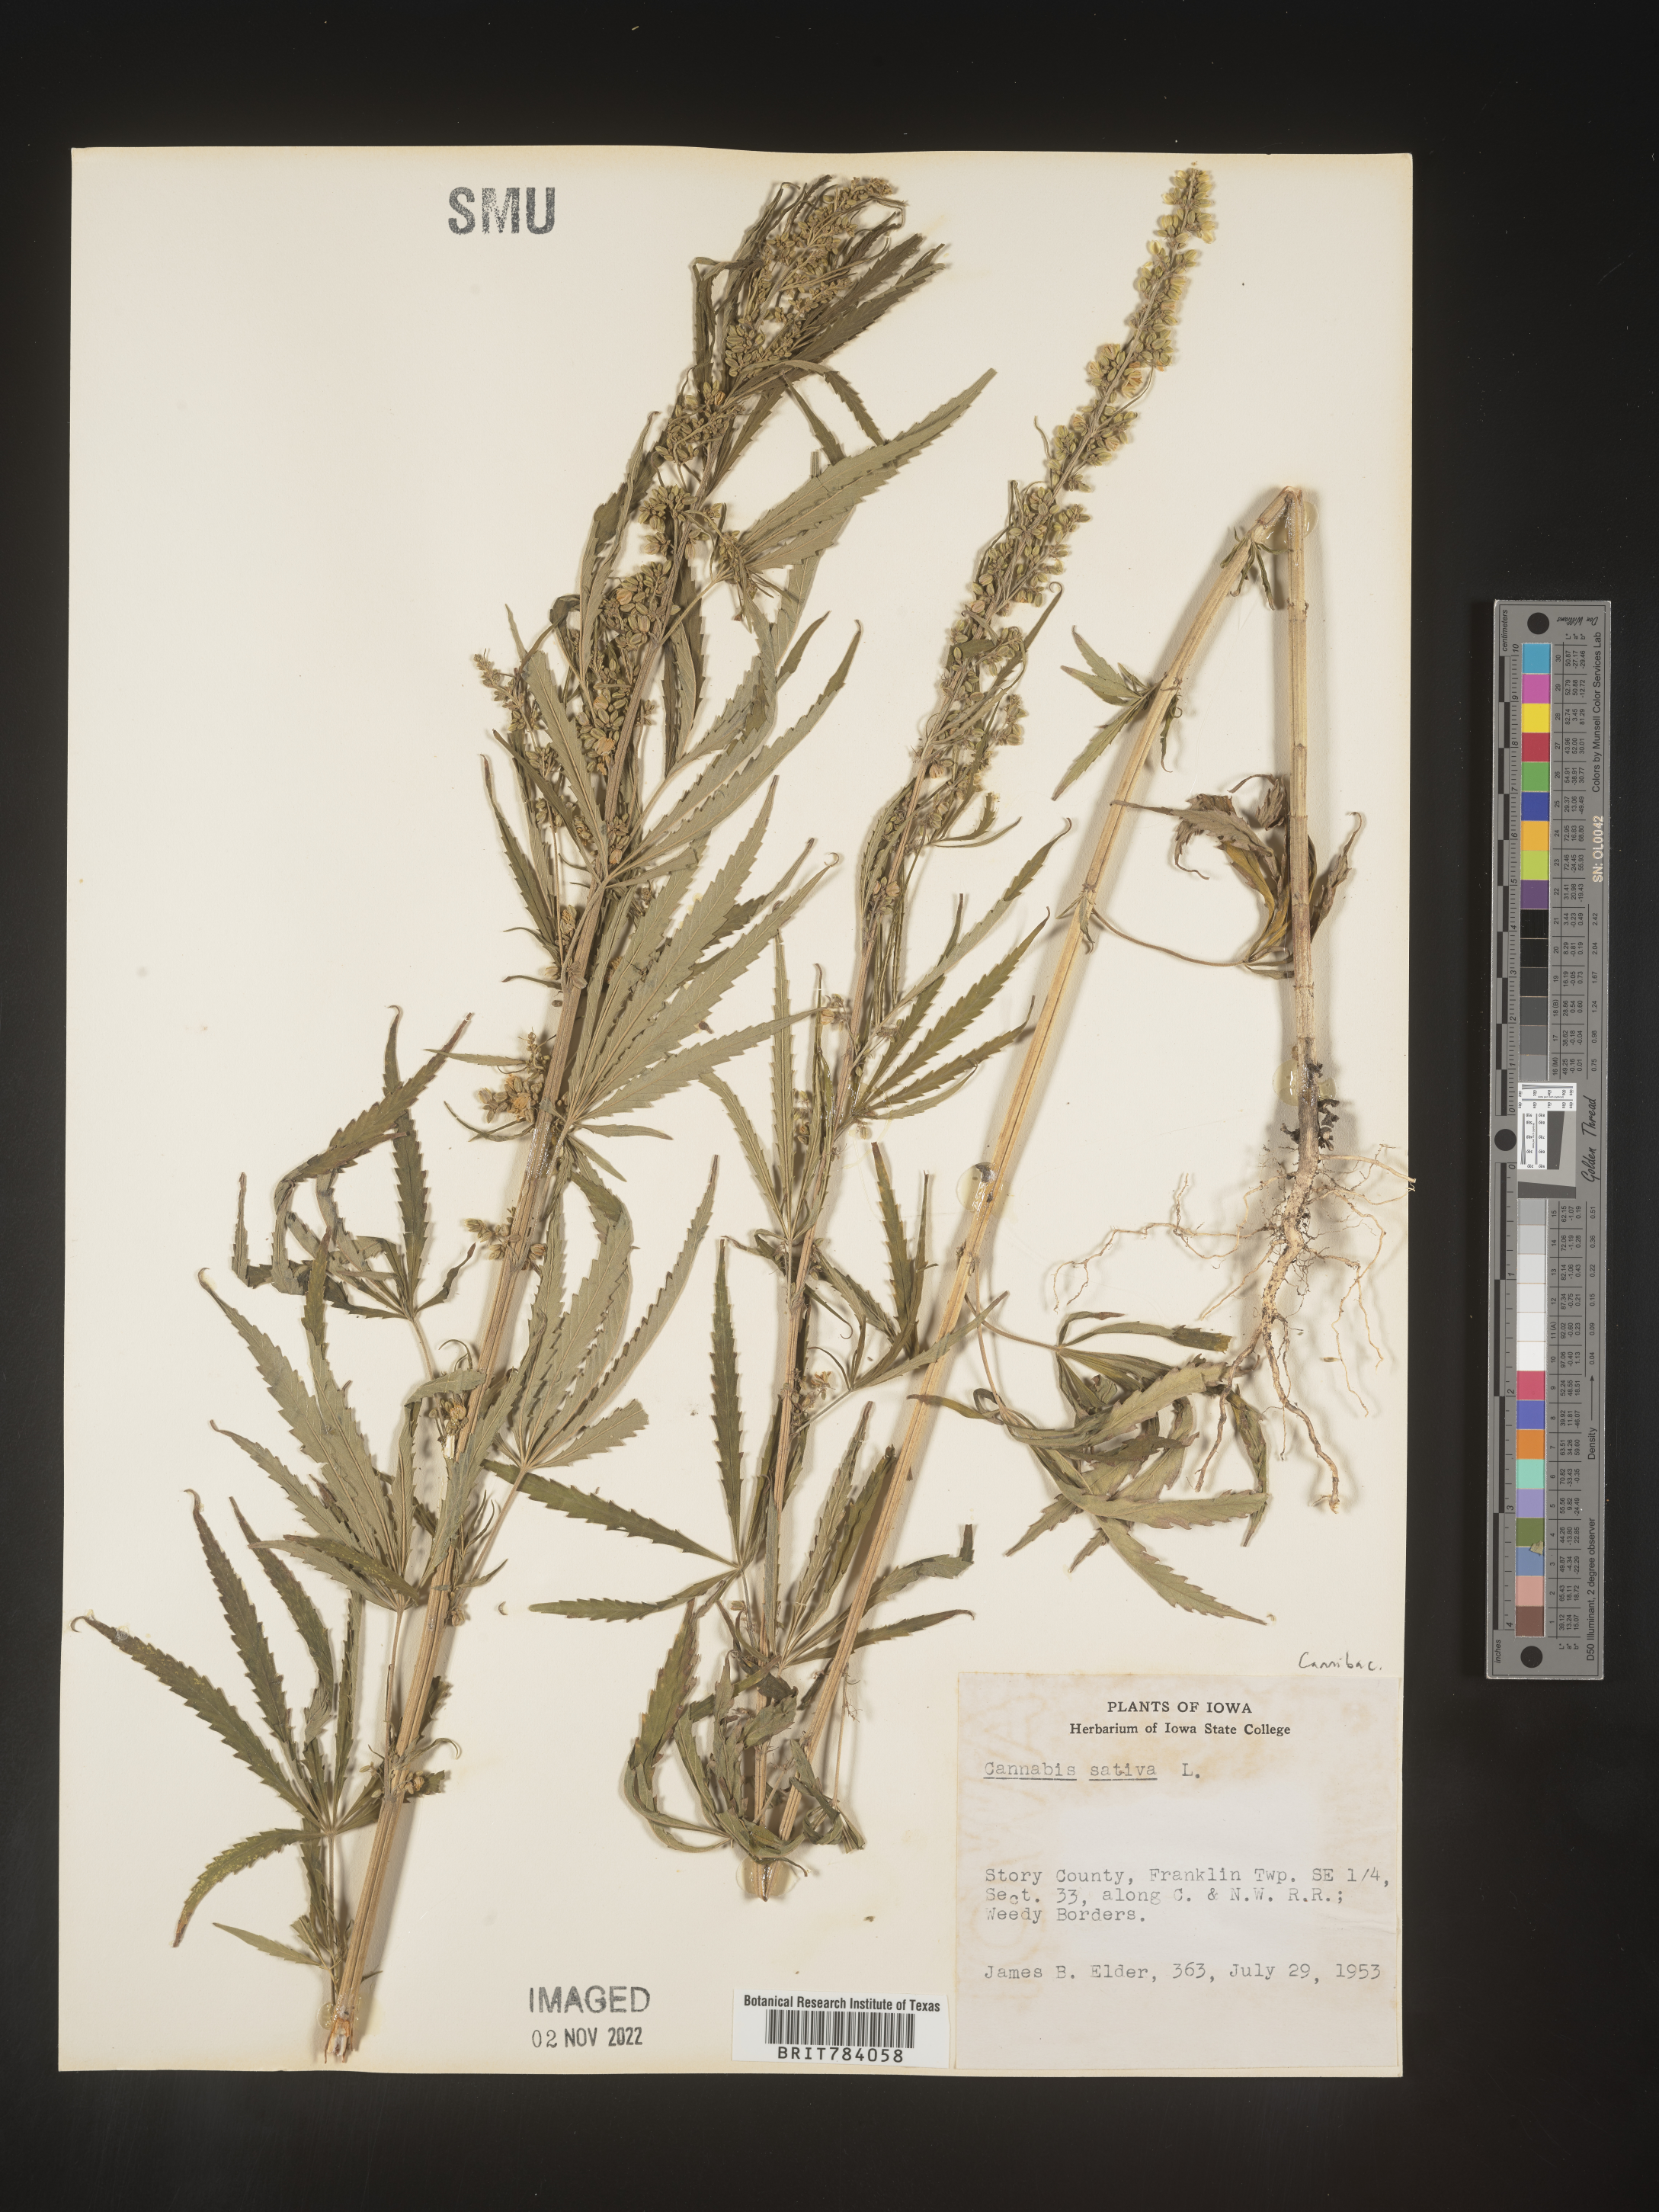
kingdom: Plantae
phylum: Tracheophyta
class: Magnoliopsida
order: Rosales
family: Cannabaceae
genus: Cannabis
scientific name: Cannabis sativa
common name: Hemp
